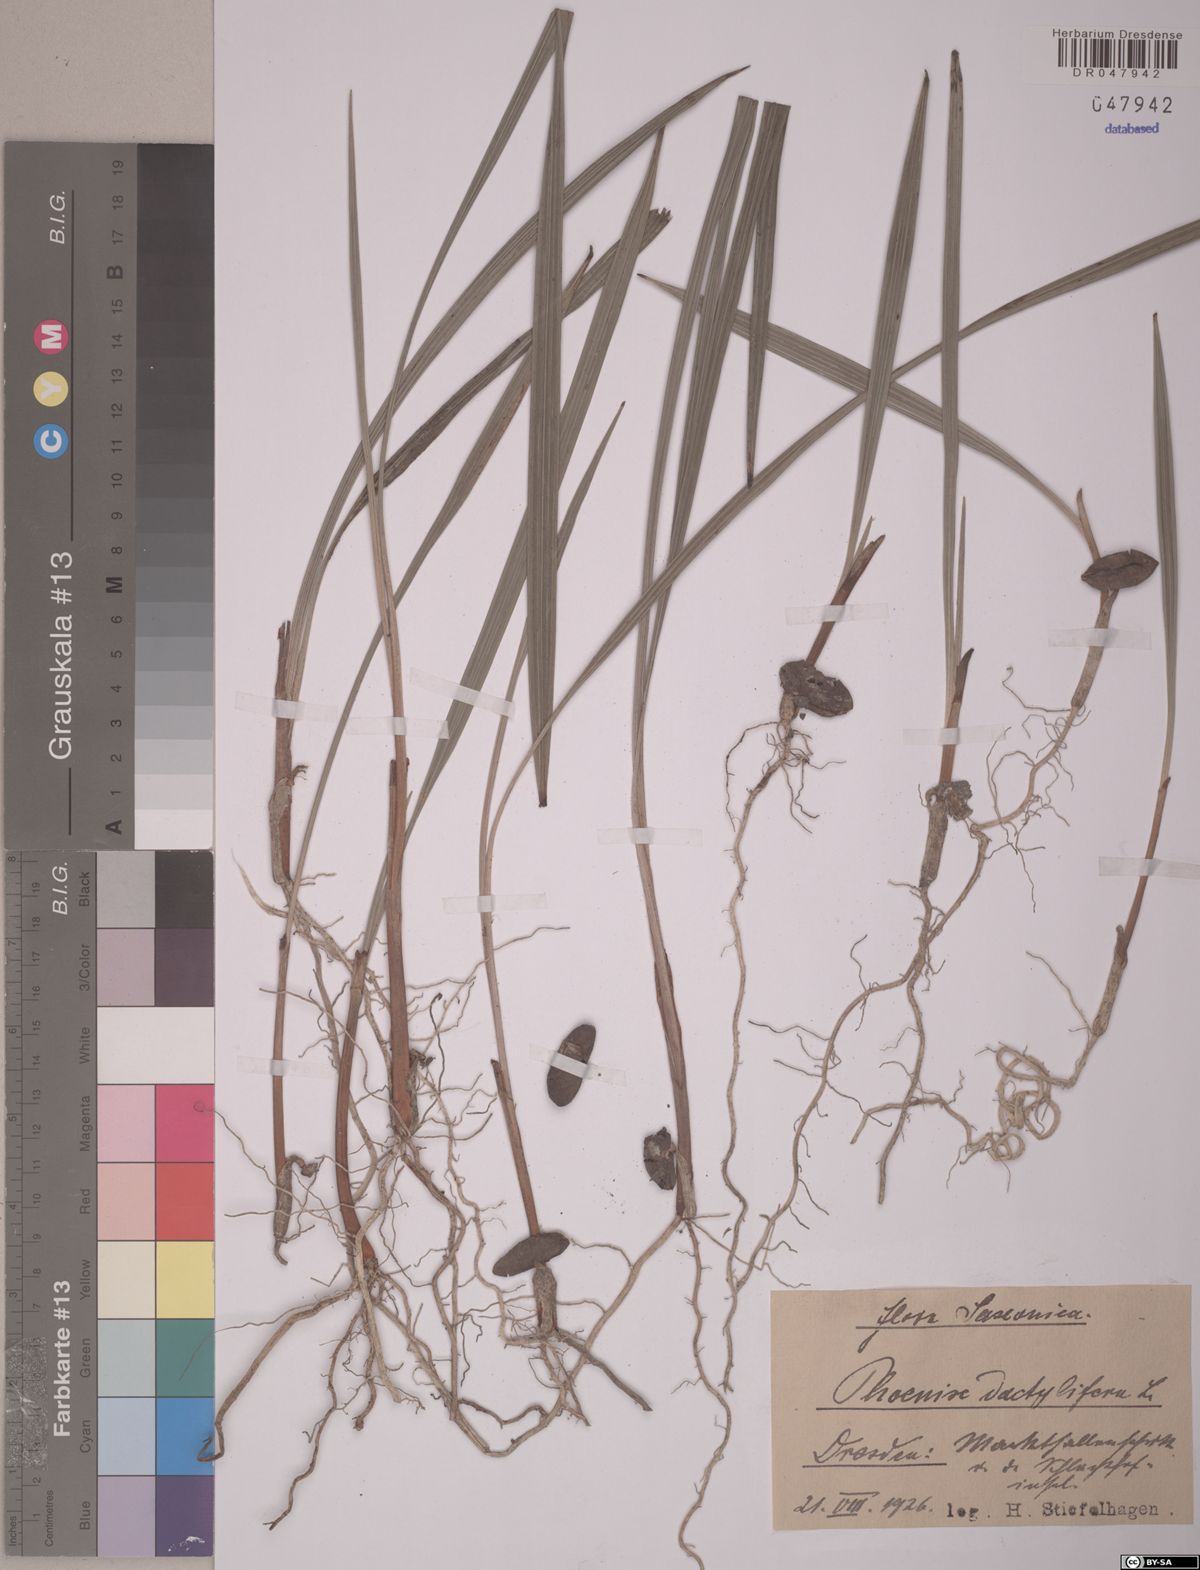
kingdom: Plantae
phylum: Tracheophyta
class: Liliopsida
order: Arecales
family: Arecaceae
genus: Phoenix
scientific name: Phoenix dactylifera
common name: Date palm
